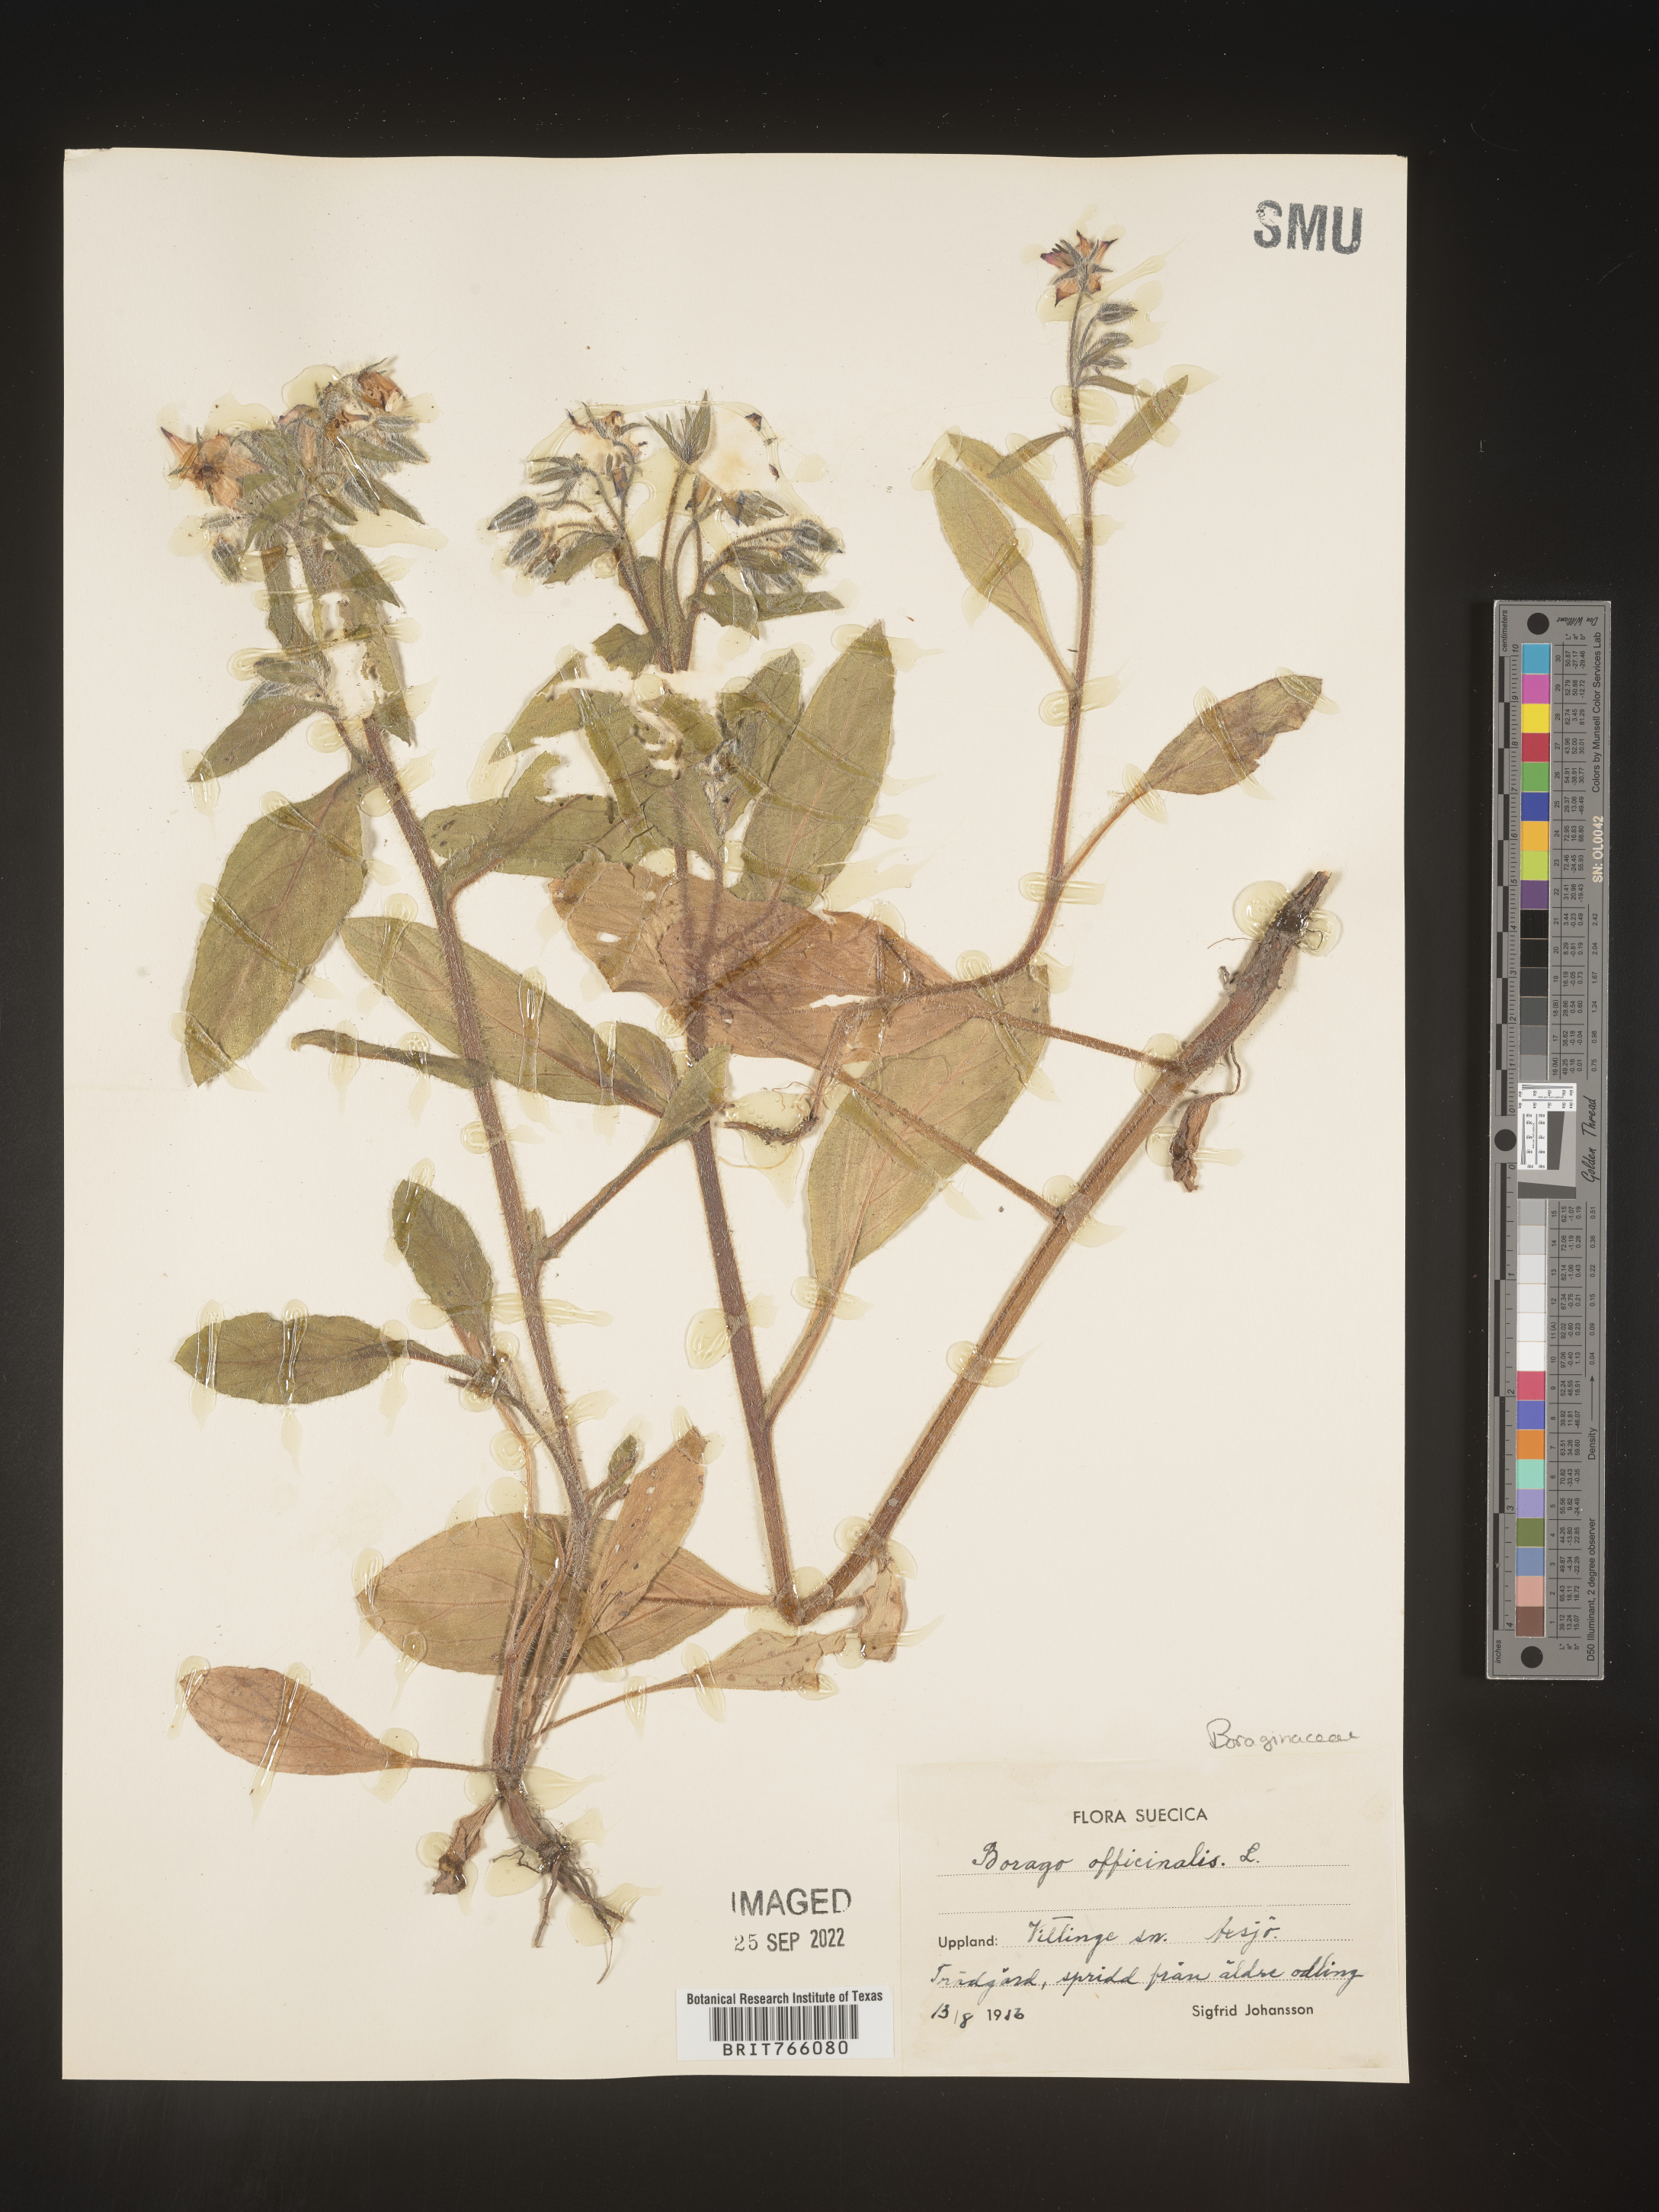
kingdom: Plantae
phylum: Tracheophyta
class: Magnoliopsida
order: Boraginales
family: Boraginaceae
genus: Borago
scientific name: Borago
